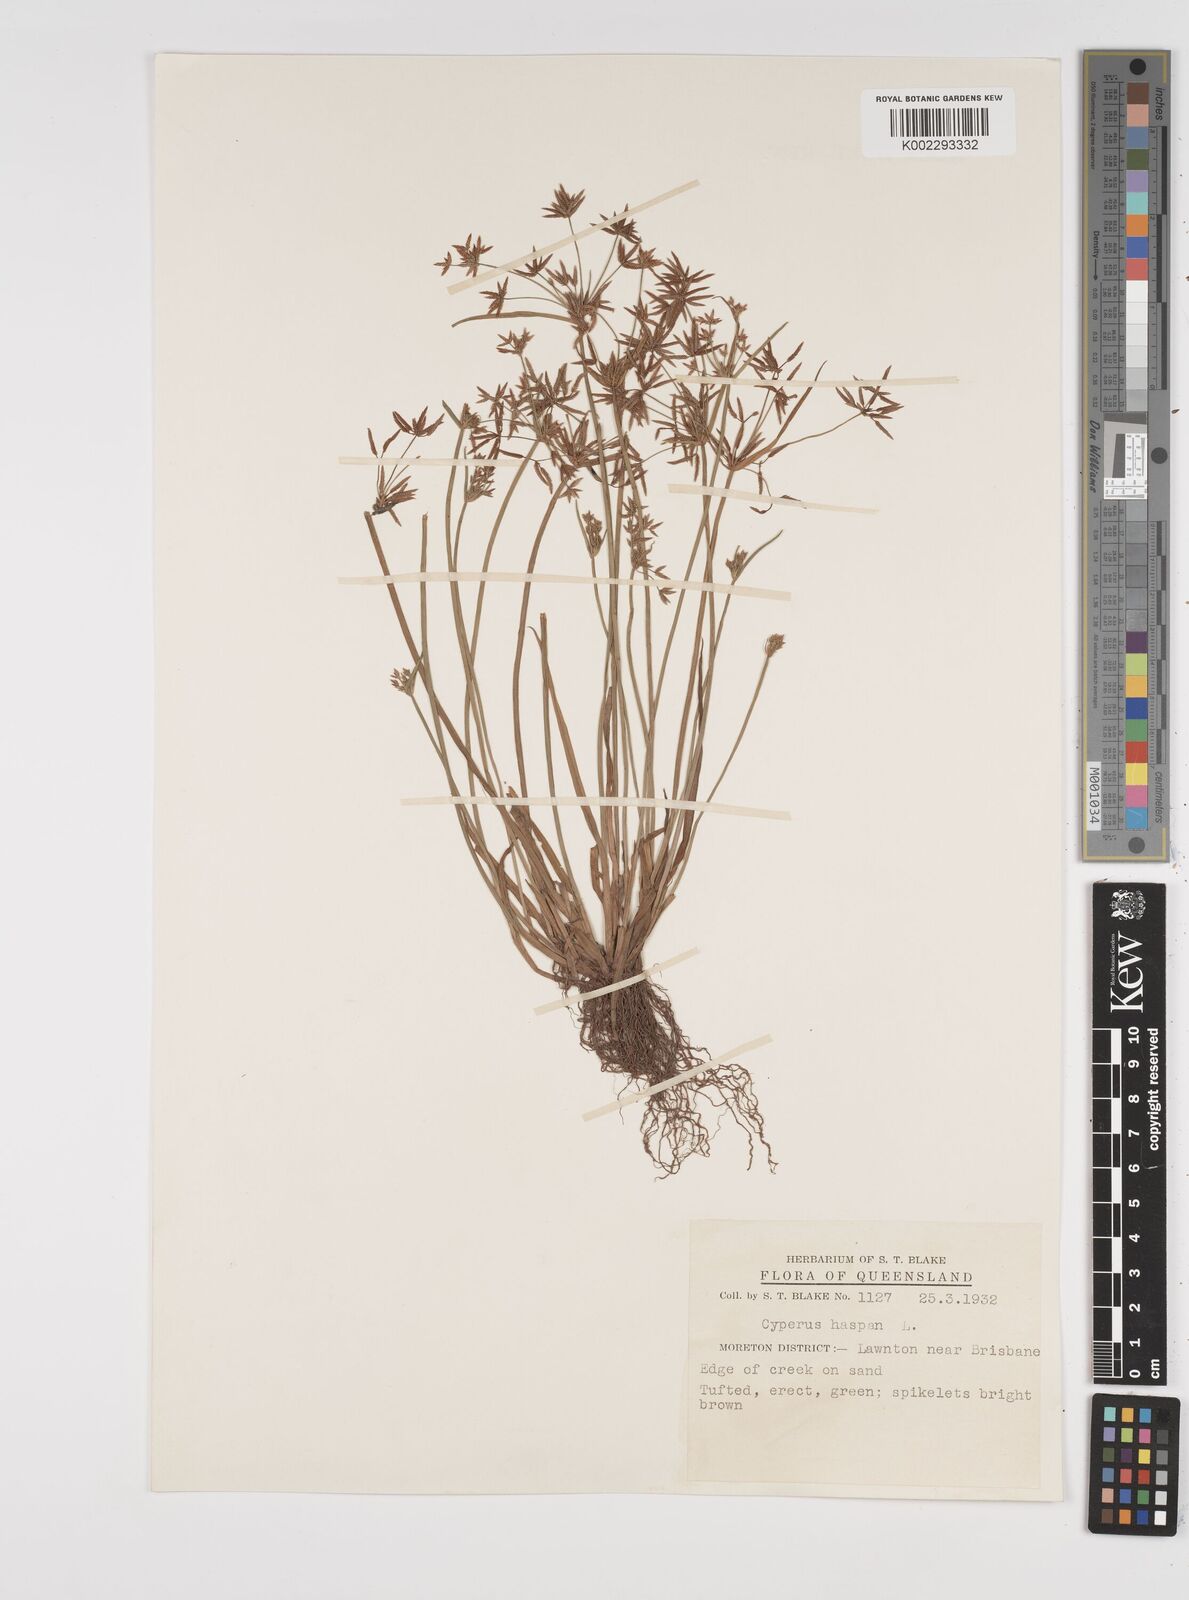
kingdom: Plantae
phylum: Tracheophyta
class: Liliopsida
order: Poales
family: Cyperaceae
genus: Cyperus
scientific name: Cyperus haspan
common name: Haspan flatsedge
